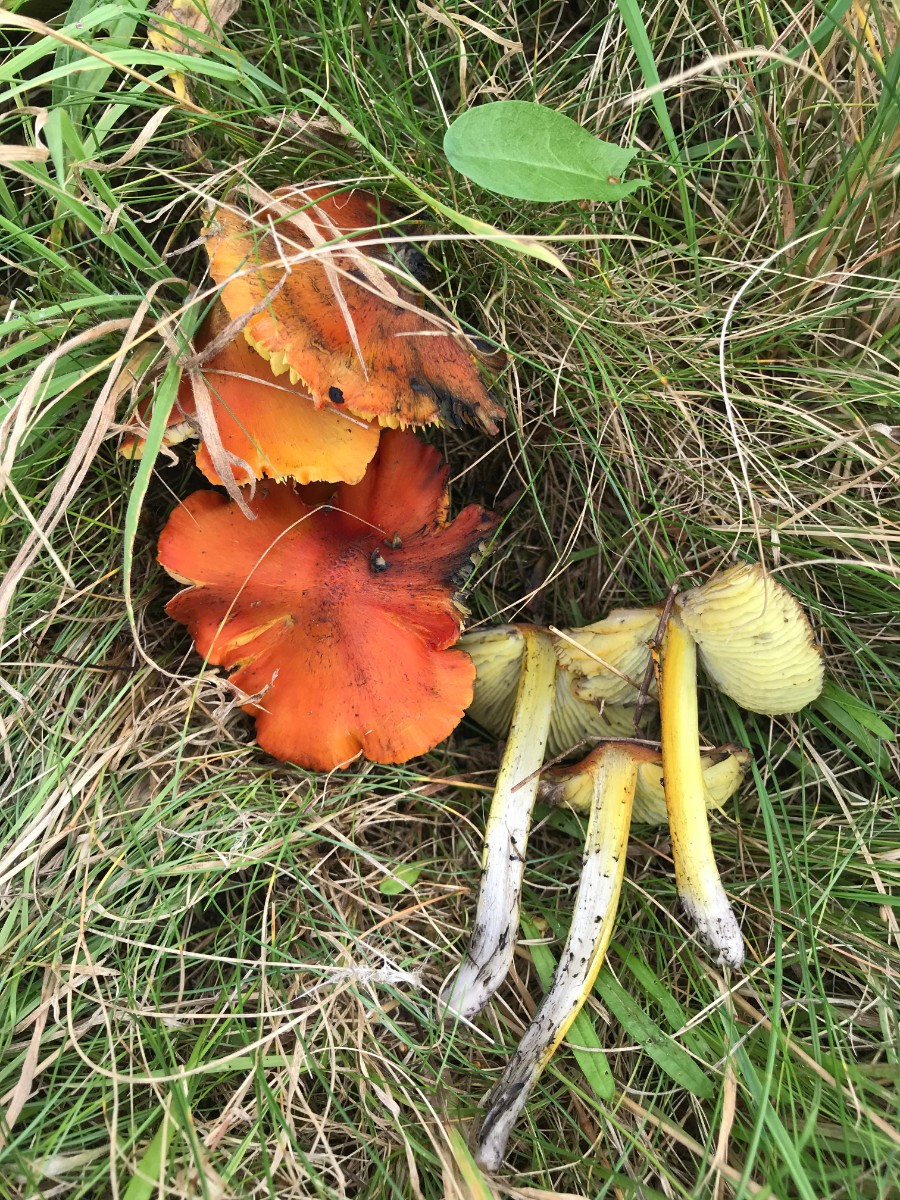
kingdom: Fungi
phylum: Basidiomycota
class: Agaricomycetes
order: Agaricales
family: Hygrophoraceae
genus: Hygrocybe
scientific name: Hygrocybe conica
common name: kegle-vokshat
